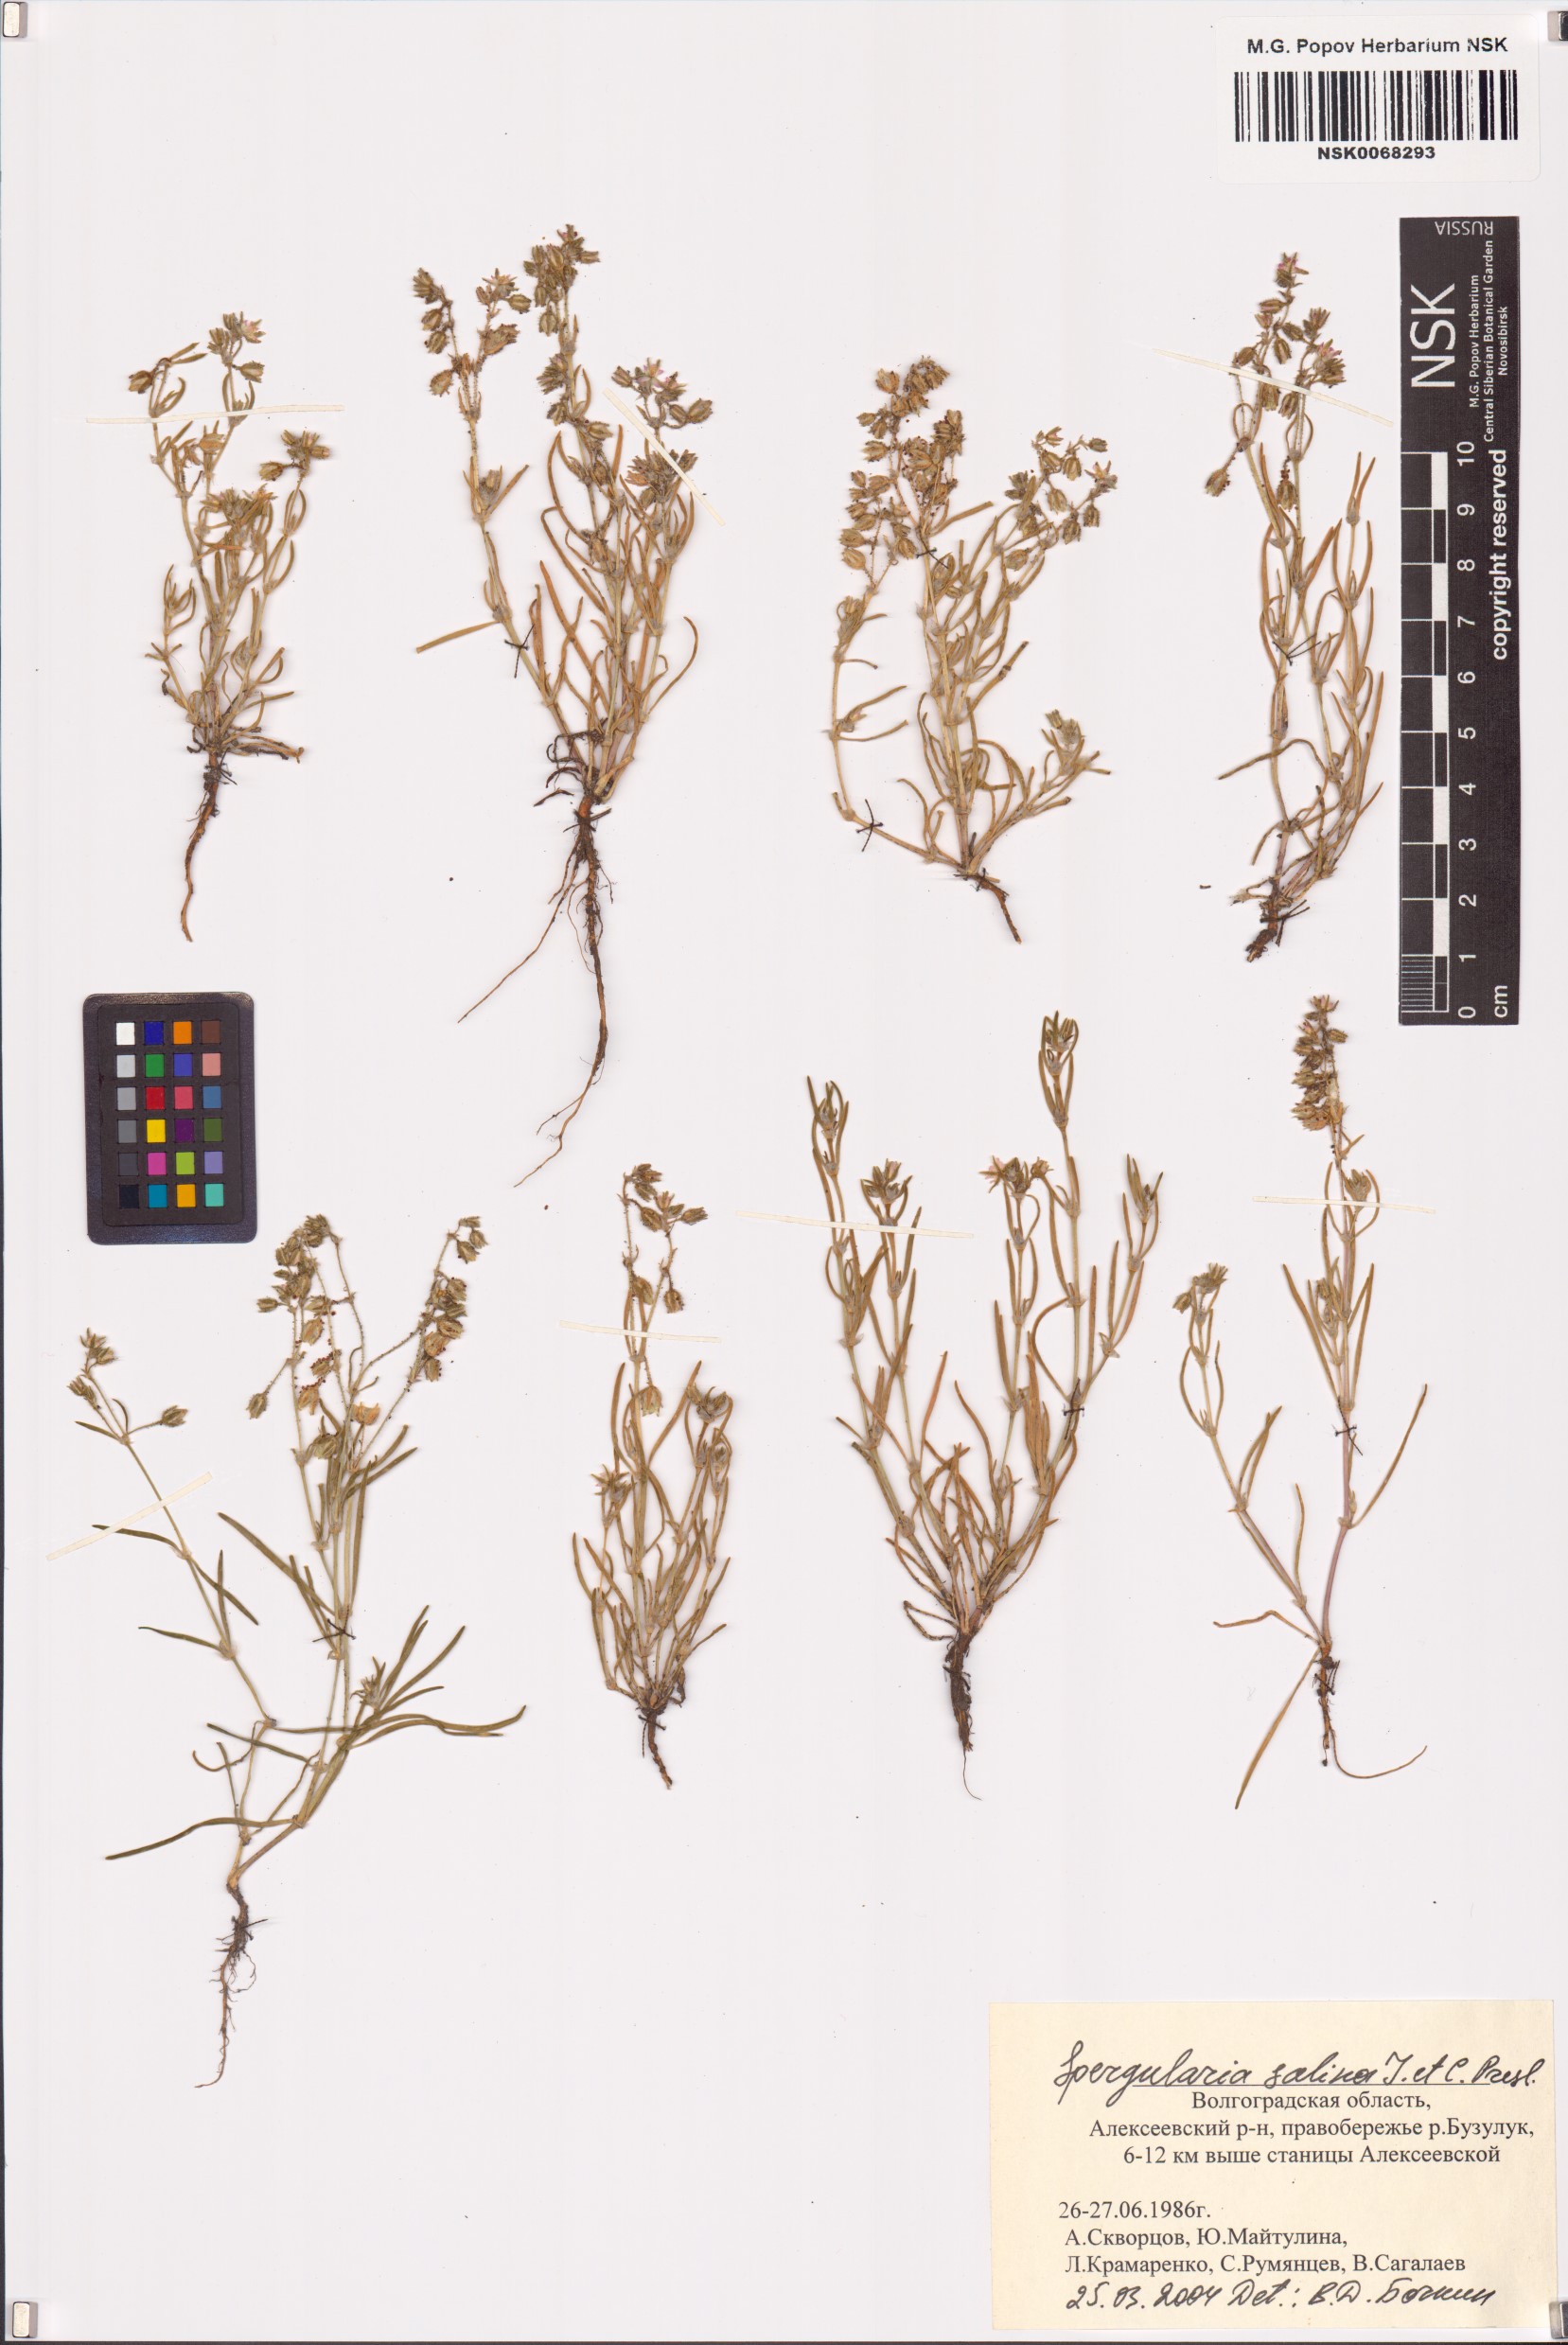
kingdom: Plantae
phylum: Tracheophyta
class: Magnoliopsida
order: Caryophyllales
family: Caryophyllaceae
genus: Spergularia
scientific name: Spergularia marina
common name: Lesser sea-spurrey
